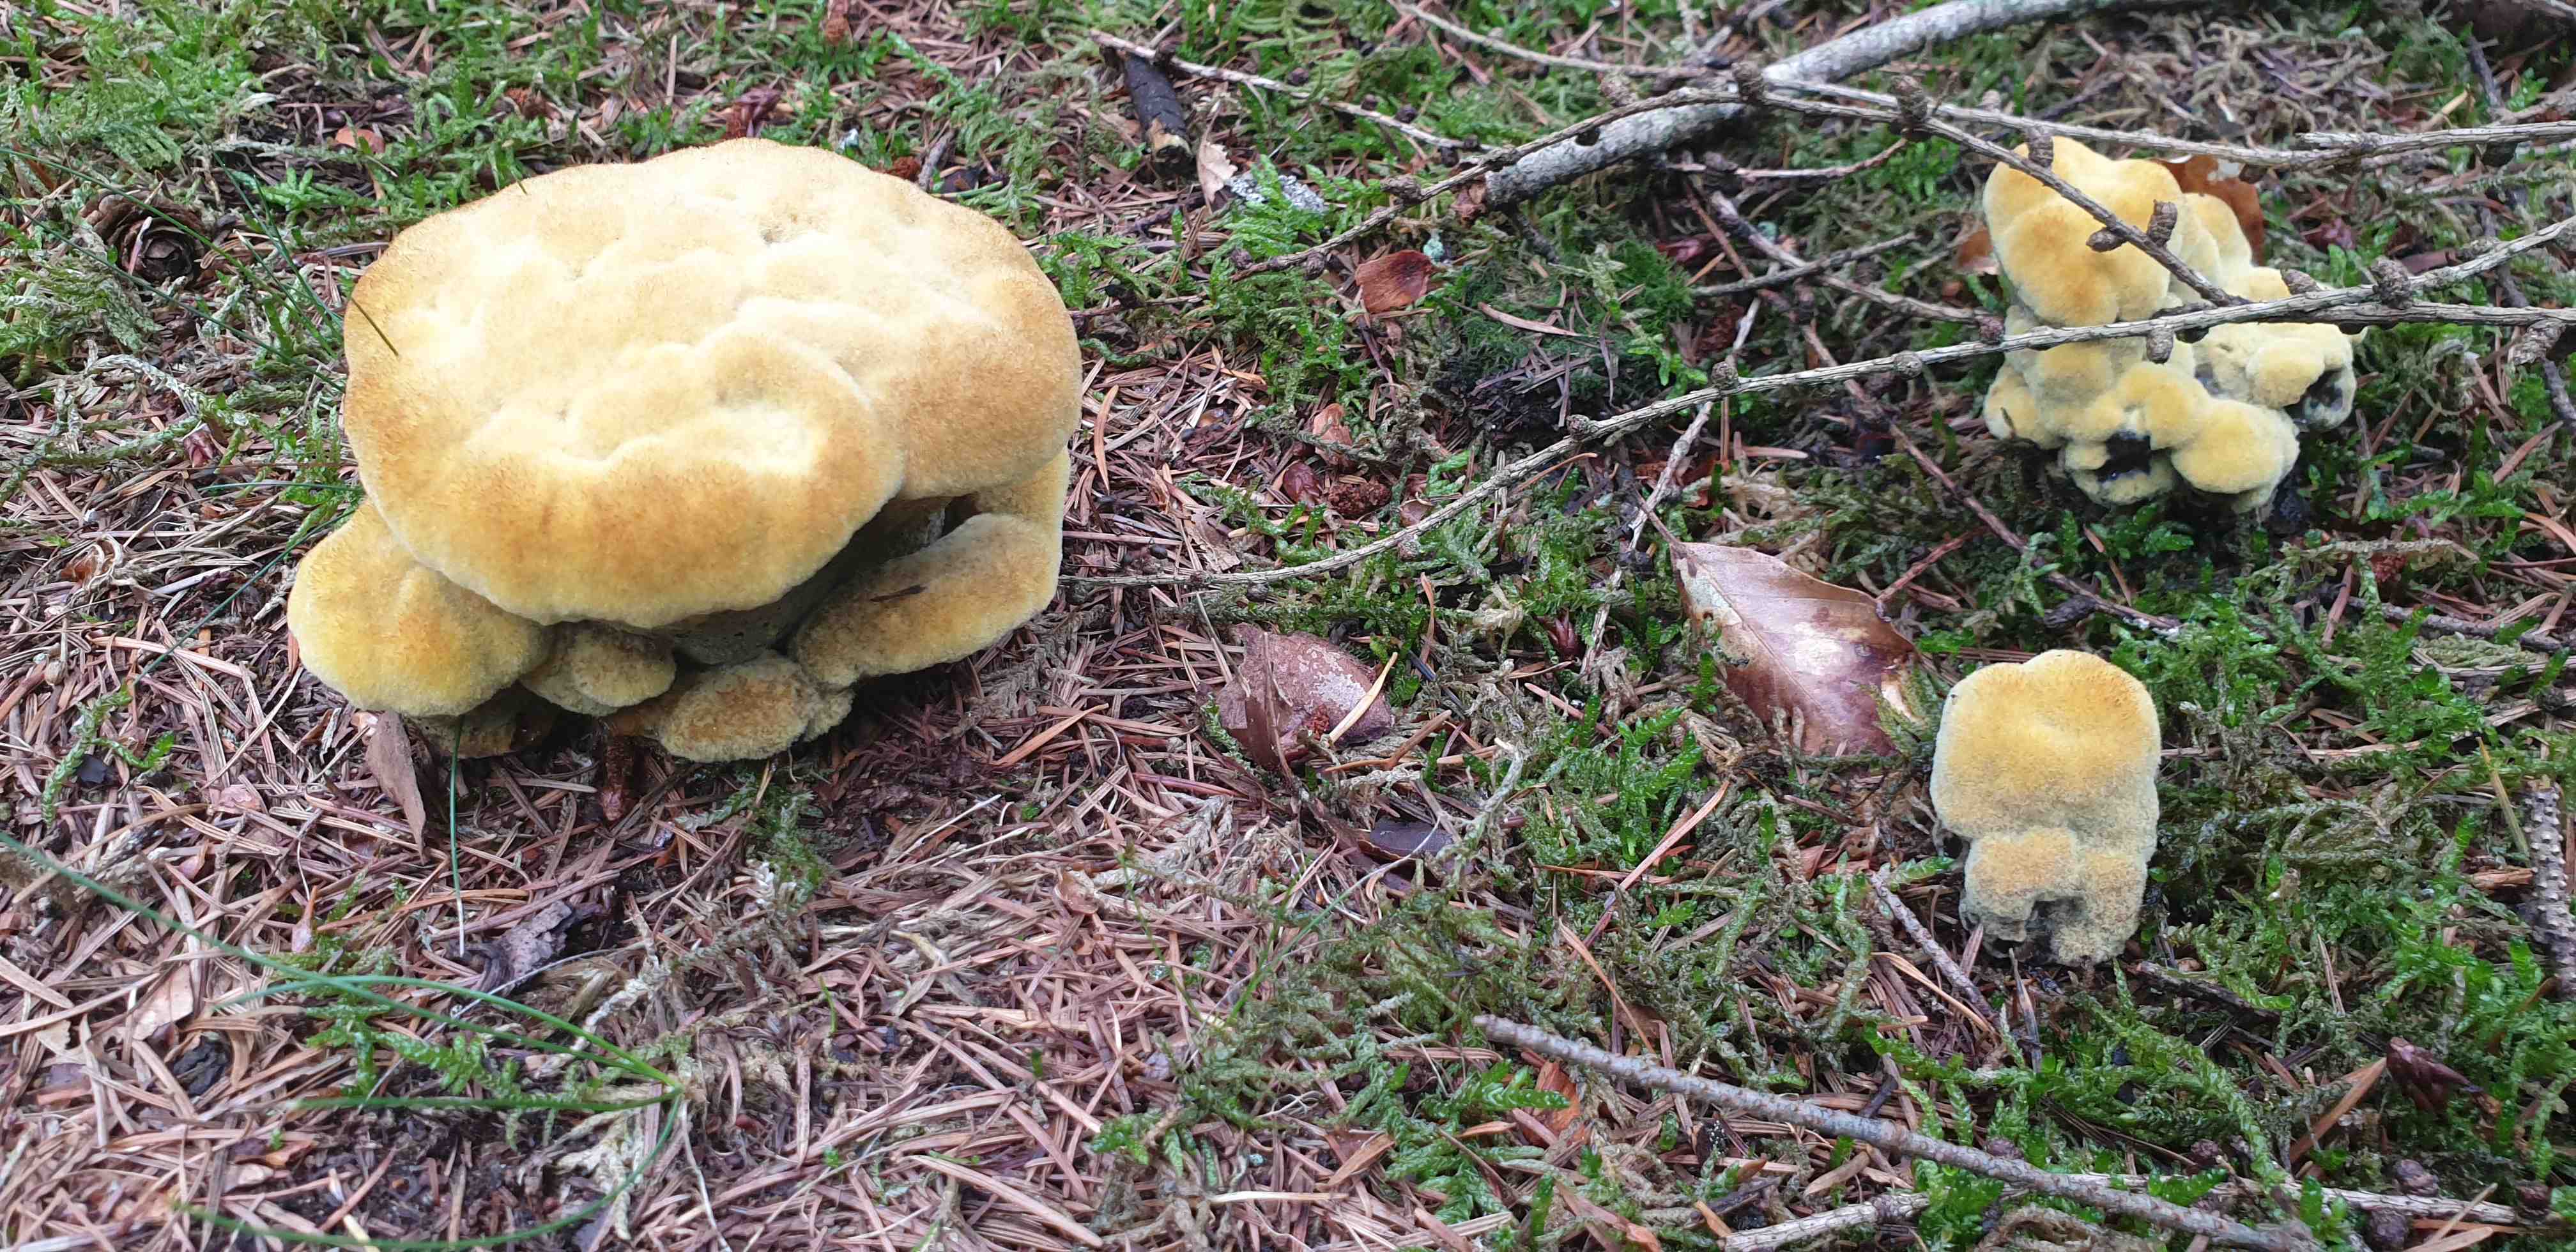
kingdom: Fungi
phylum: Basidiomycota
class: Agaricomycetes
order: Polyporales
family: Laetiporaceae
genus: Phaeolus
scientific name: Phaeolus schweinitzii
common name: brunporesvamp
